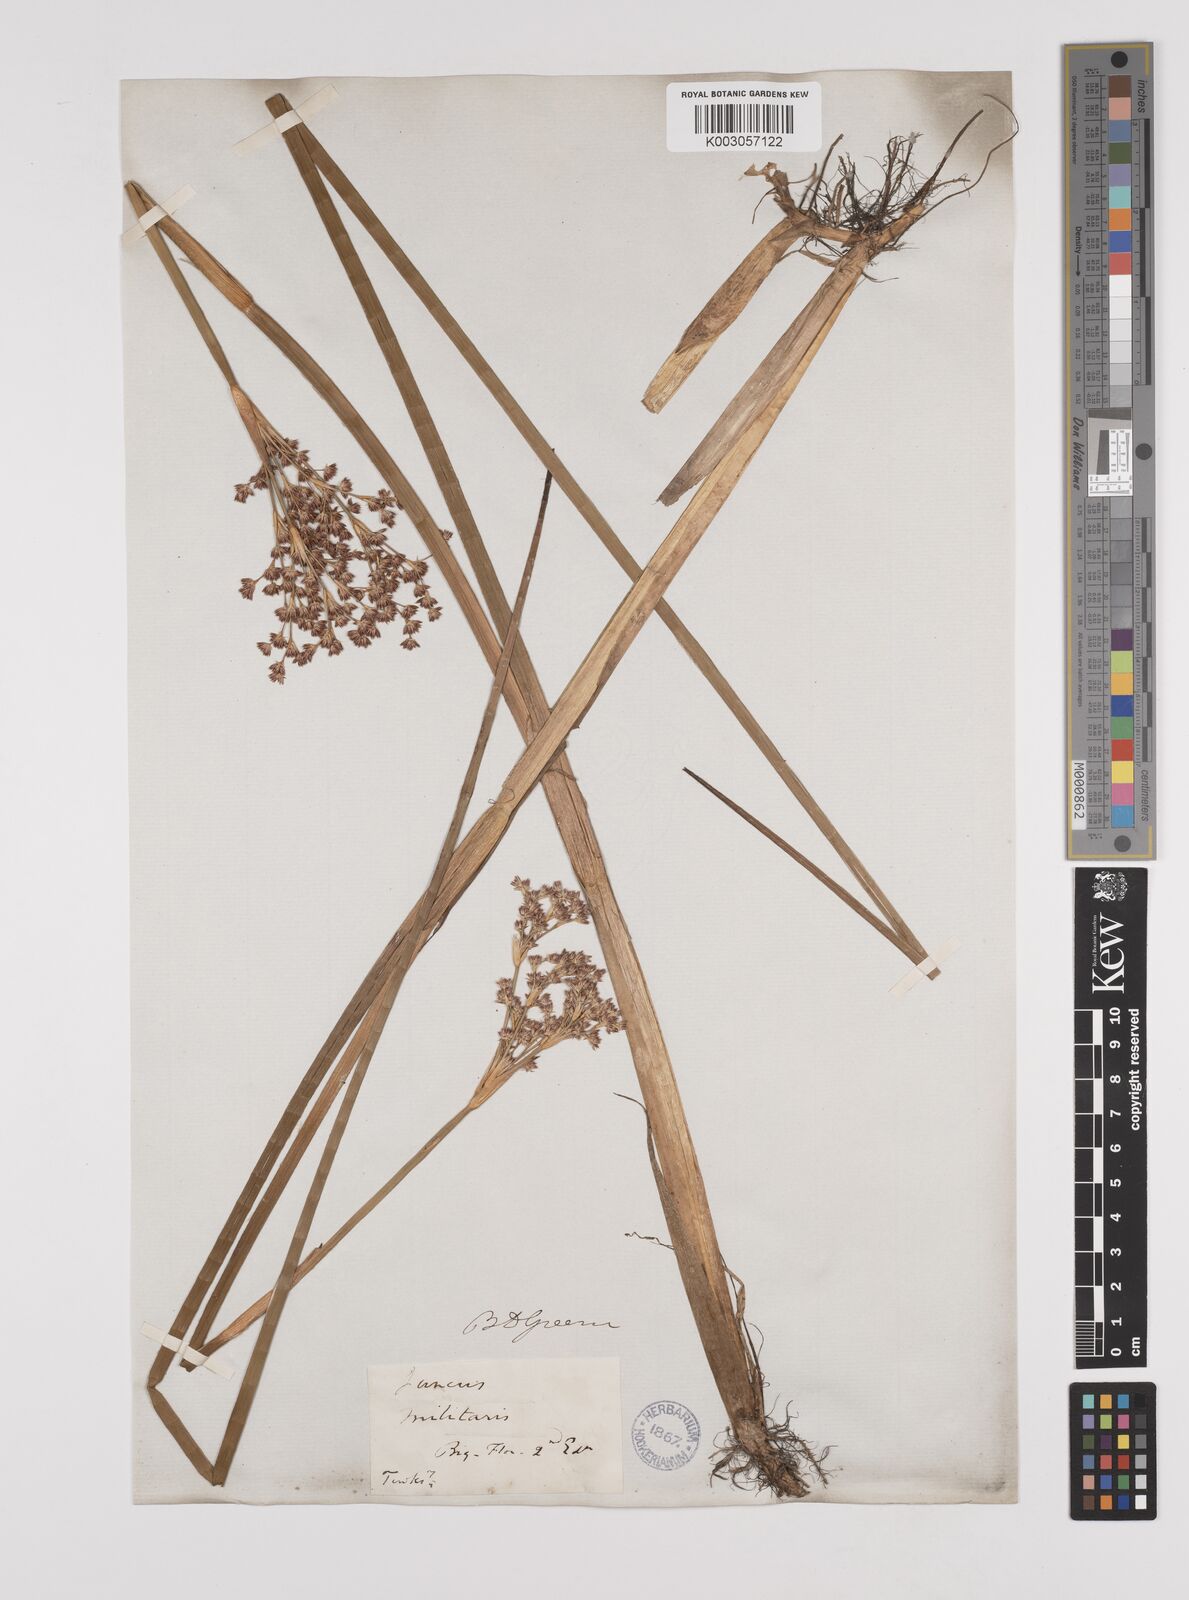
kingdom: Plantae
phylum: Tracheophyta
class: Liliopsida
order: Poales
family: Juncaceae
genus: Juncus
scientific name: Juncus militaris
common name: Bayonet rush
